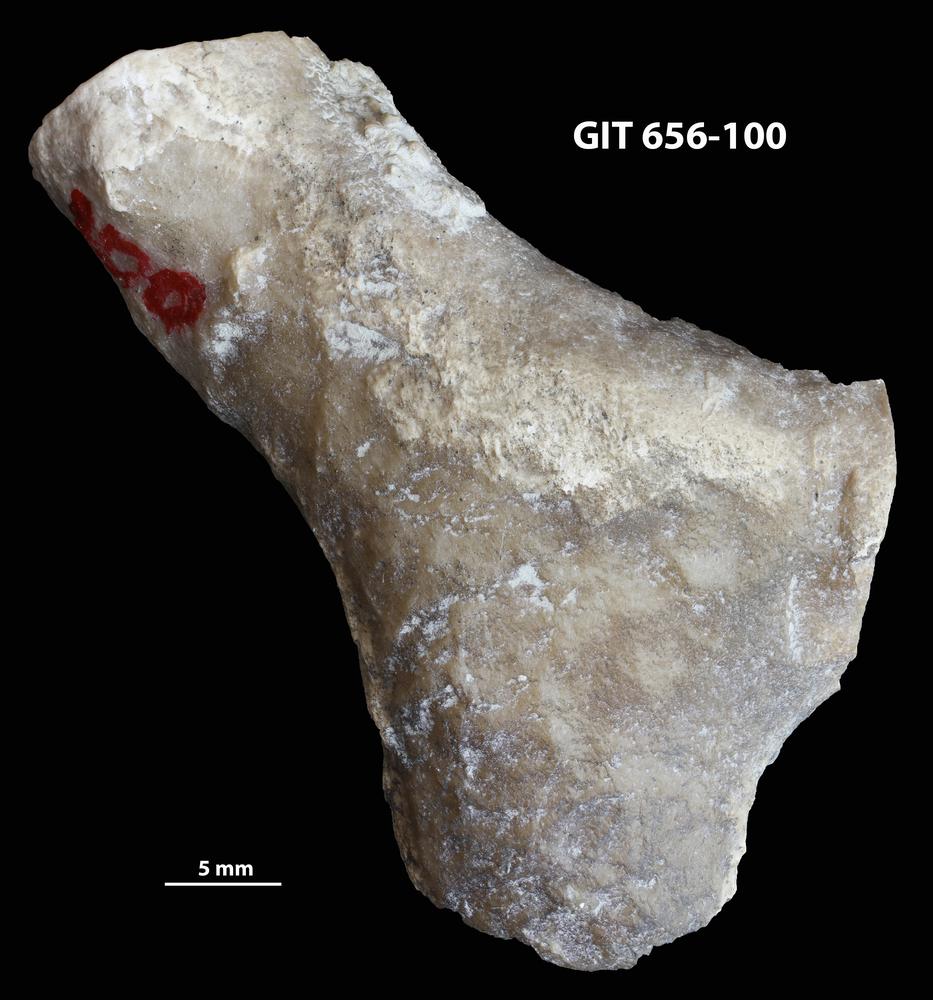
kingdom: Animalia
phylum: Cnidaria
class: Anthozoa
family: Theciidae
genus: Laceripora
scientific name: Laceripora
